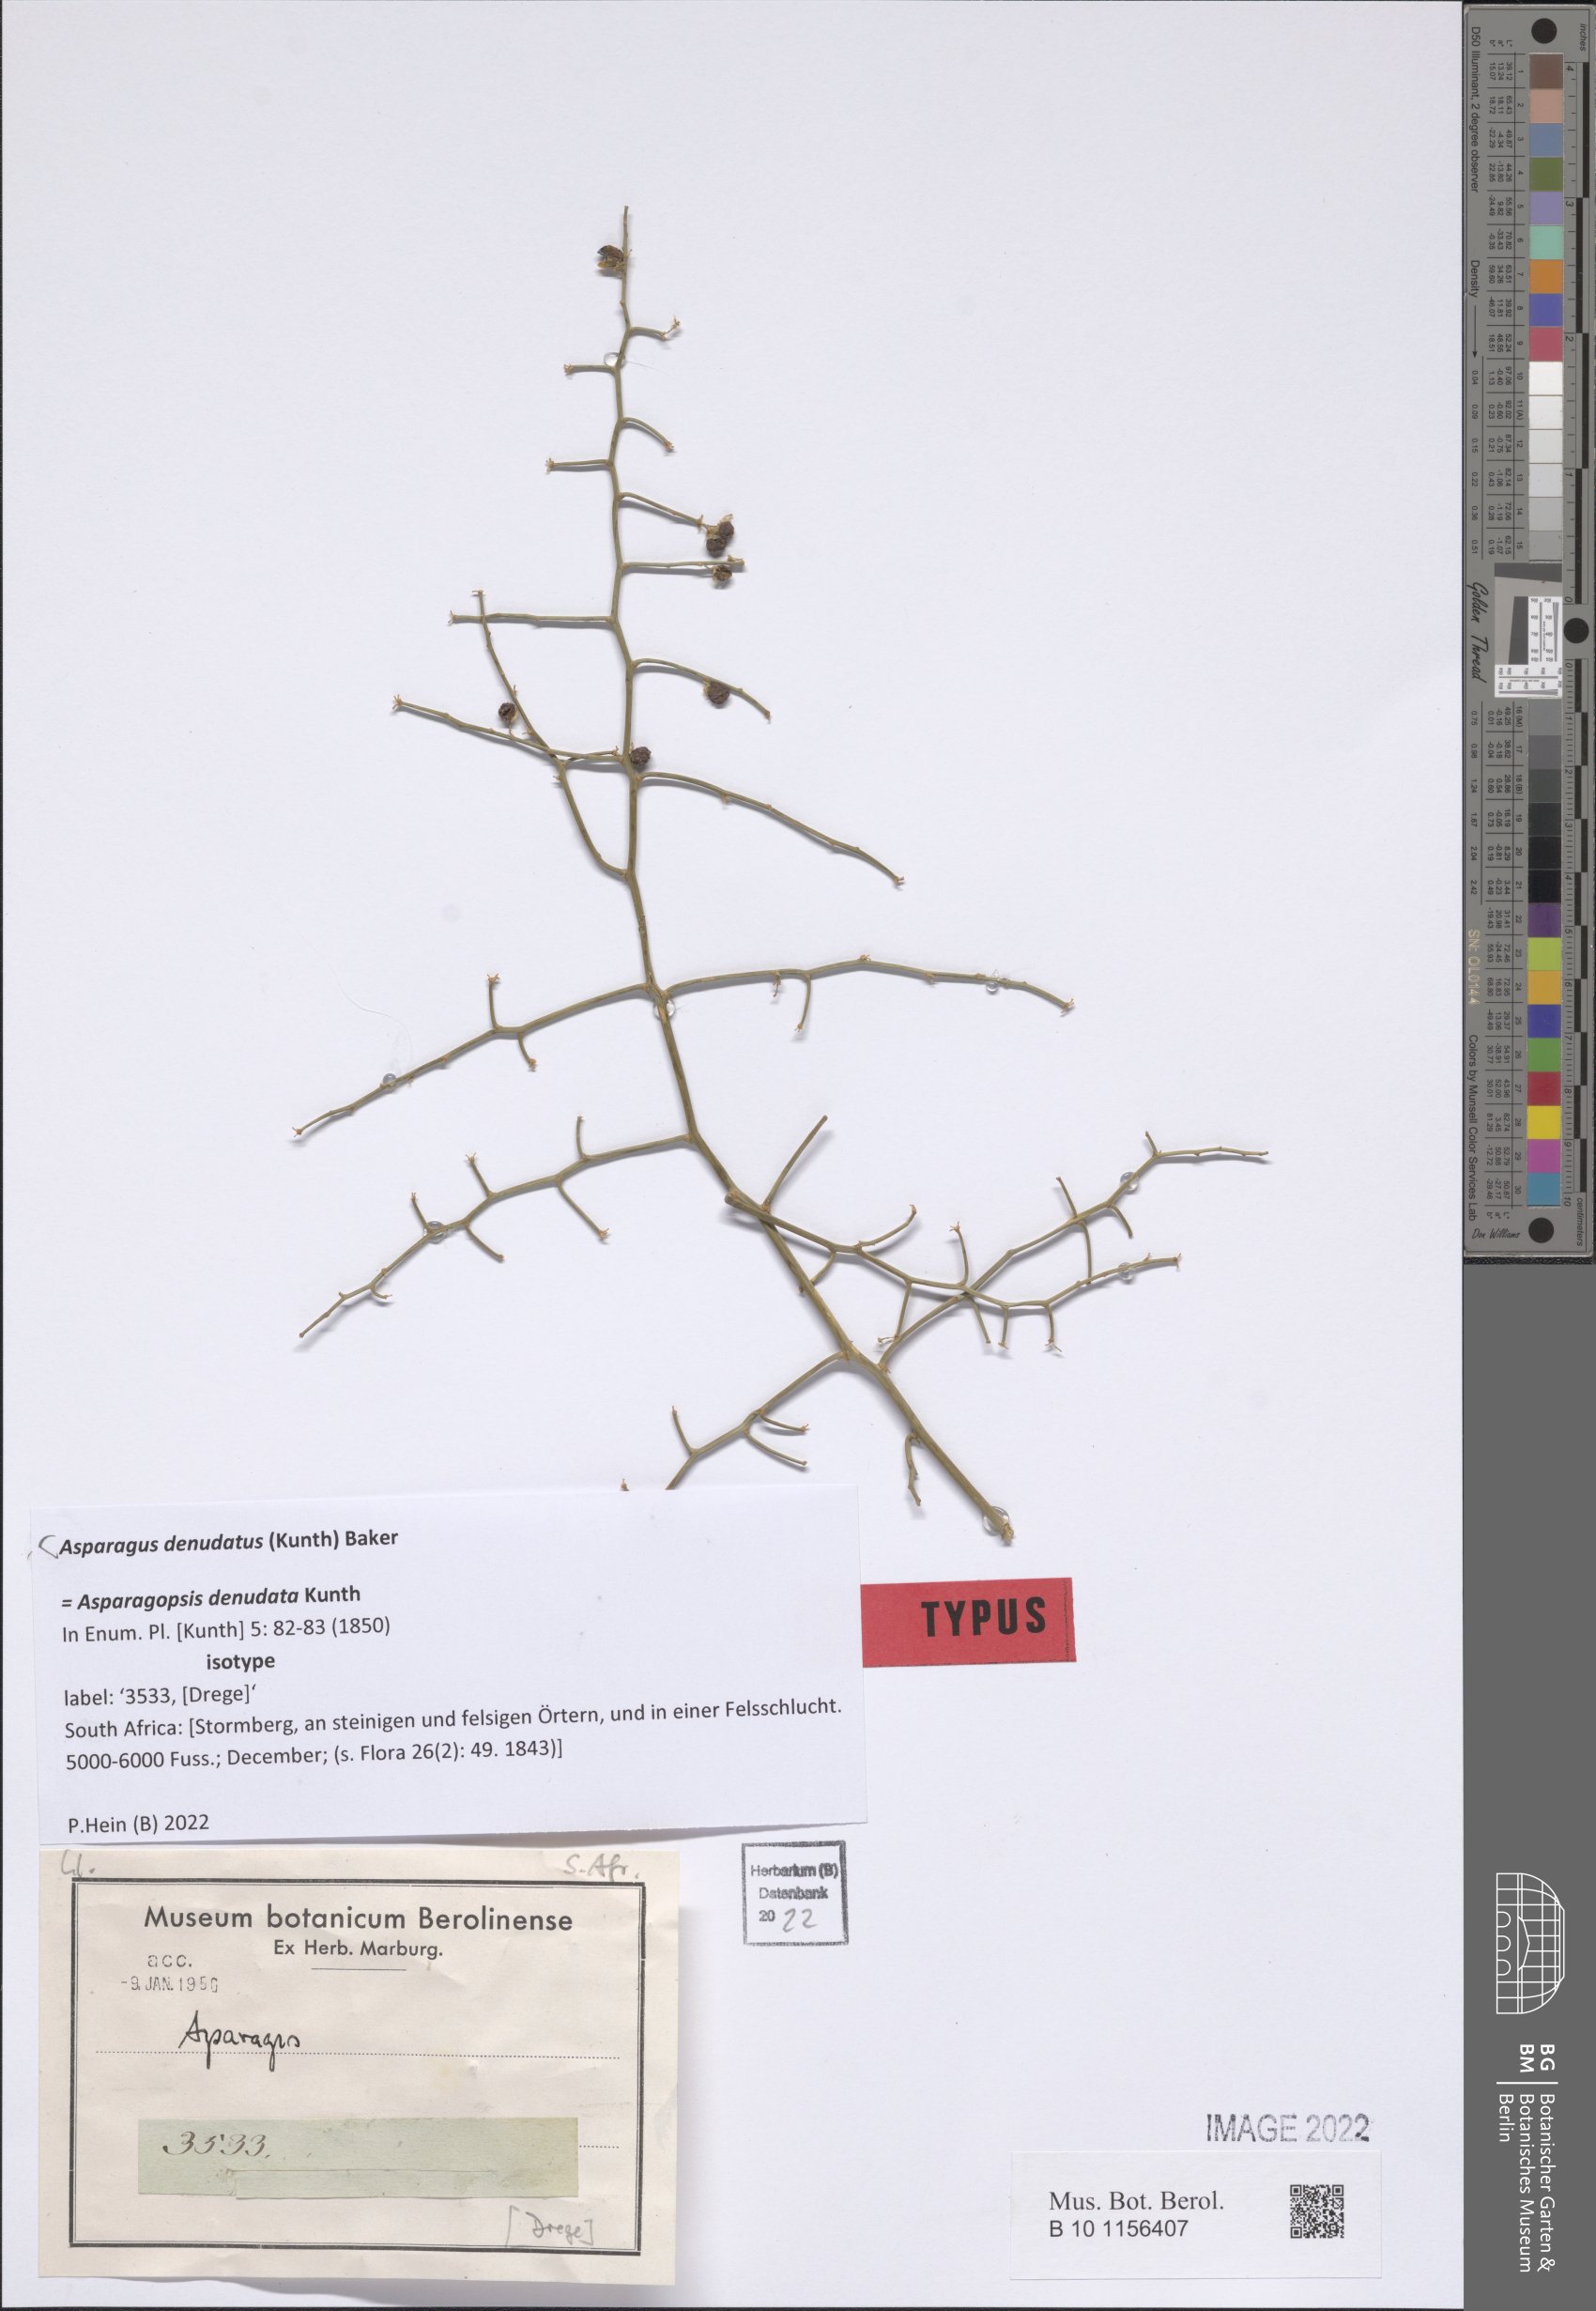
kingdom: Plantae
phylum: Tracheophyta
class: Liliopsida
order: Asparagales
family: Asparagaceae
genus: Asparagus
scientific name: Asparagus denudatus
